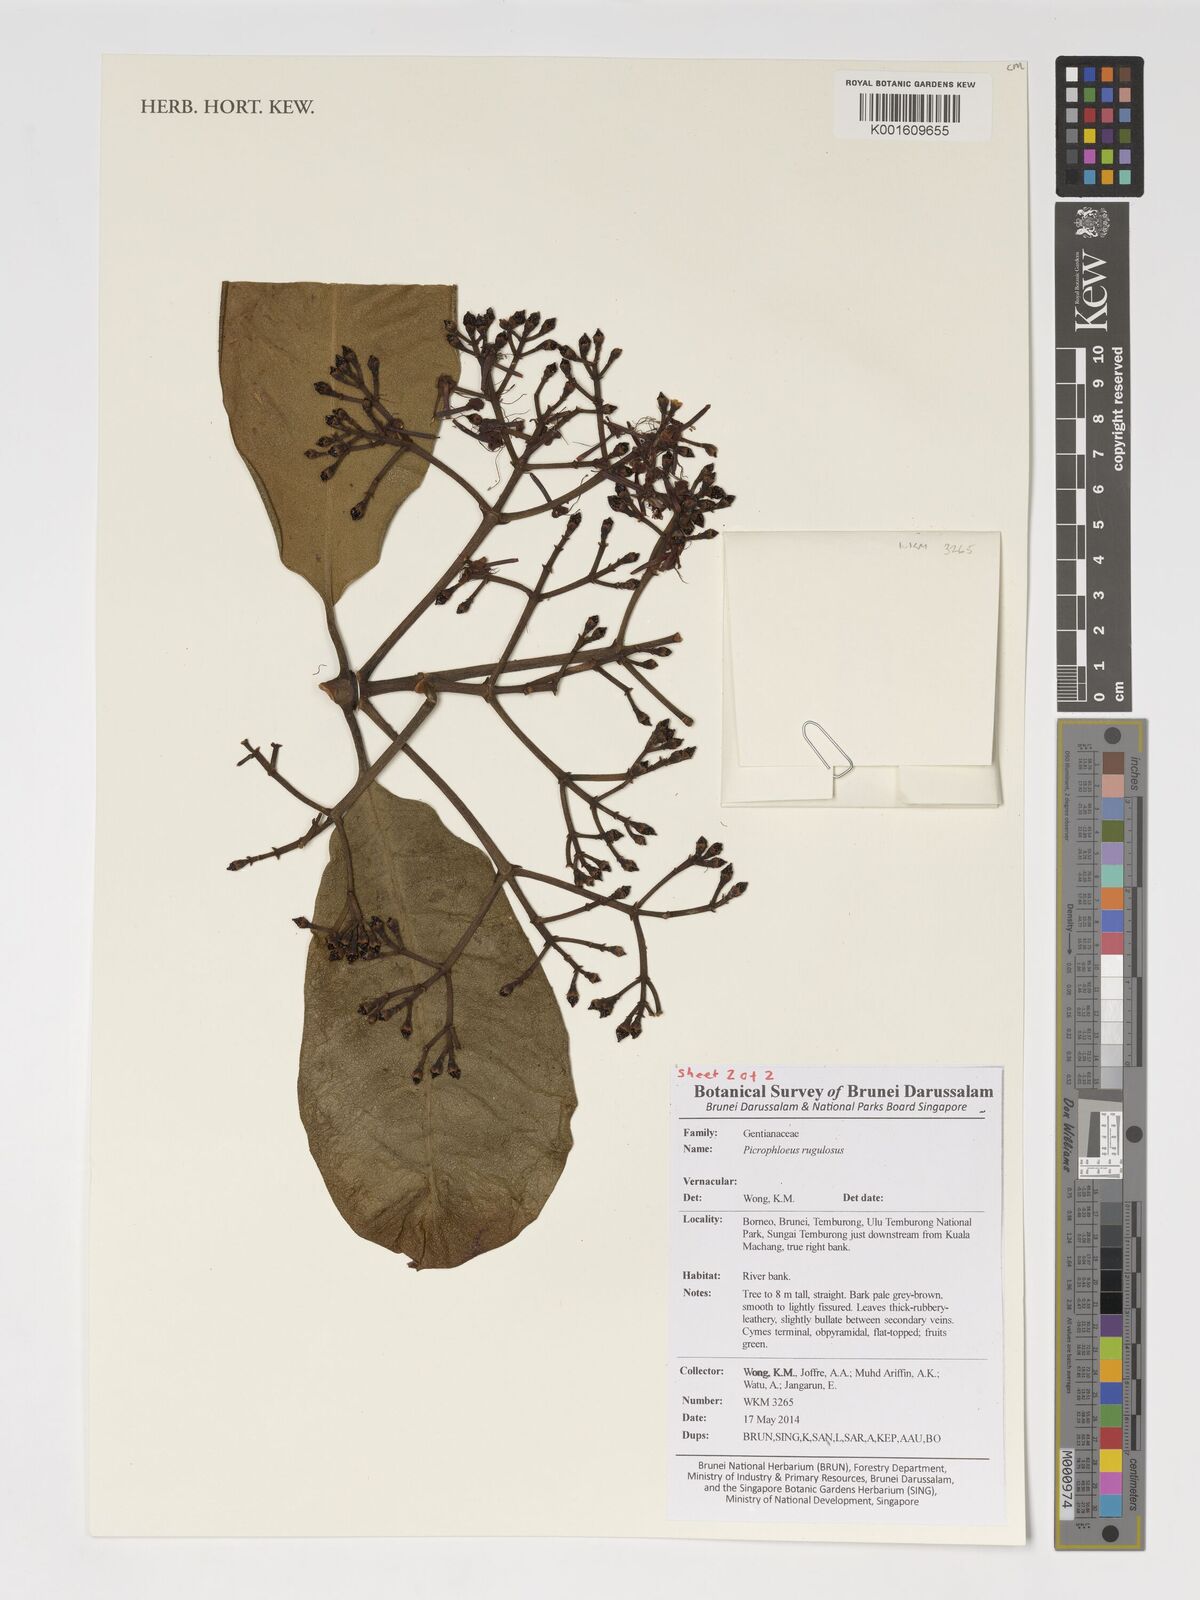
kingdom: Plantae
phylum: Tracheophyta
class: Magnoliopsida
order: Gentianales
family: Gentianaceae
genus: Picrophloeus
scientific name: Picrophloeus rugulosus
